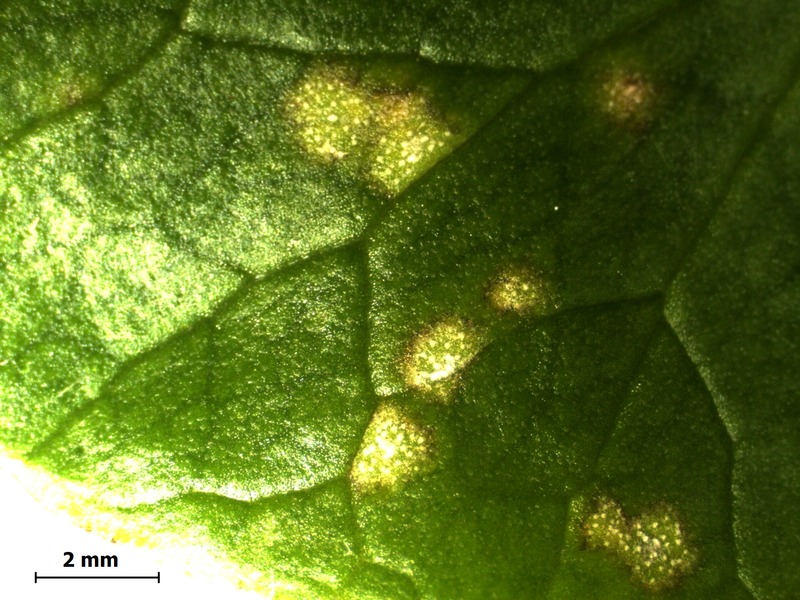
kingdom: Fungi
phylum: Basidiomycota
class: Exobasidiomycetes
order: Entylomatales
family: Entylomataceae
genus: Entyloma
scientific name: Entyloma ficariae
